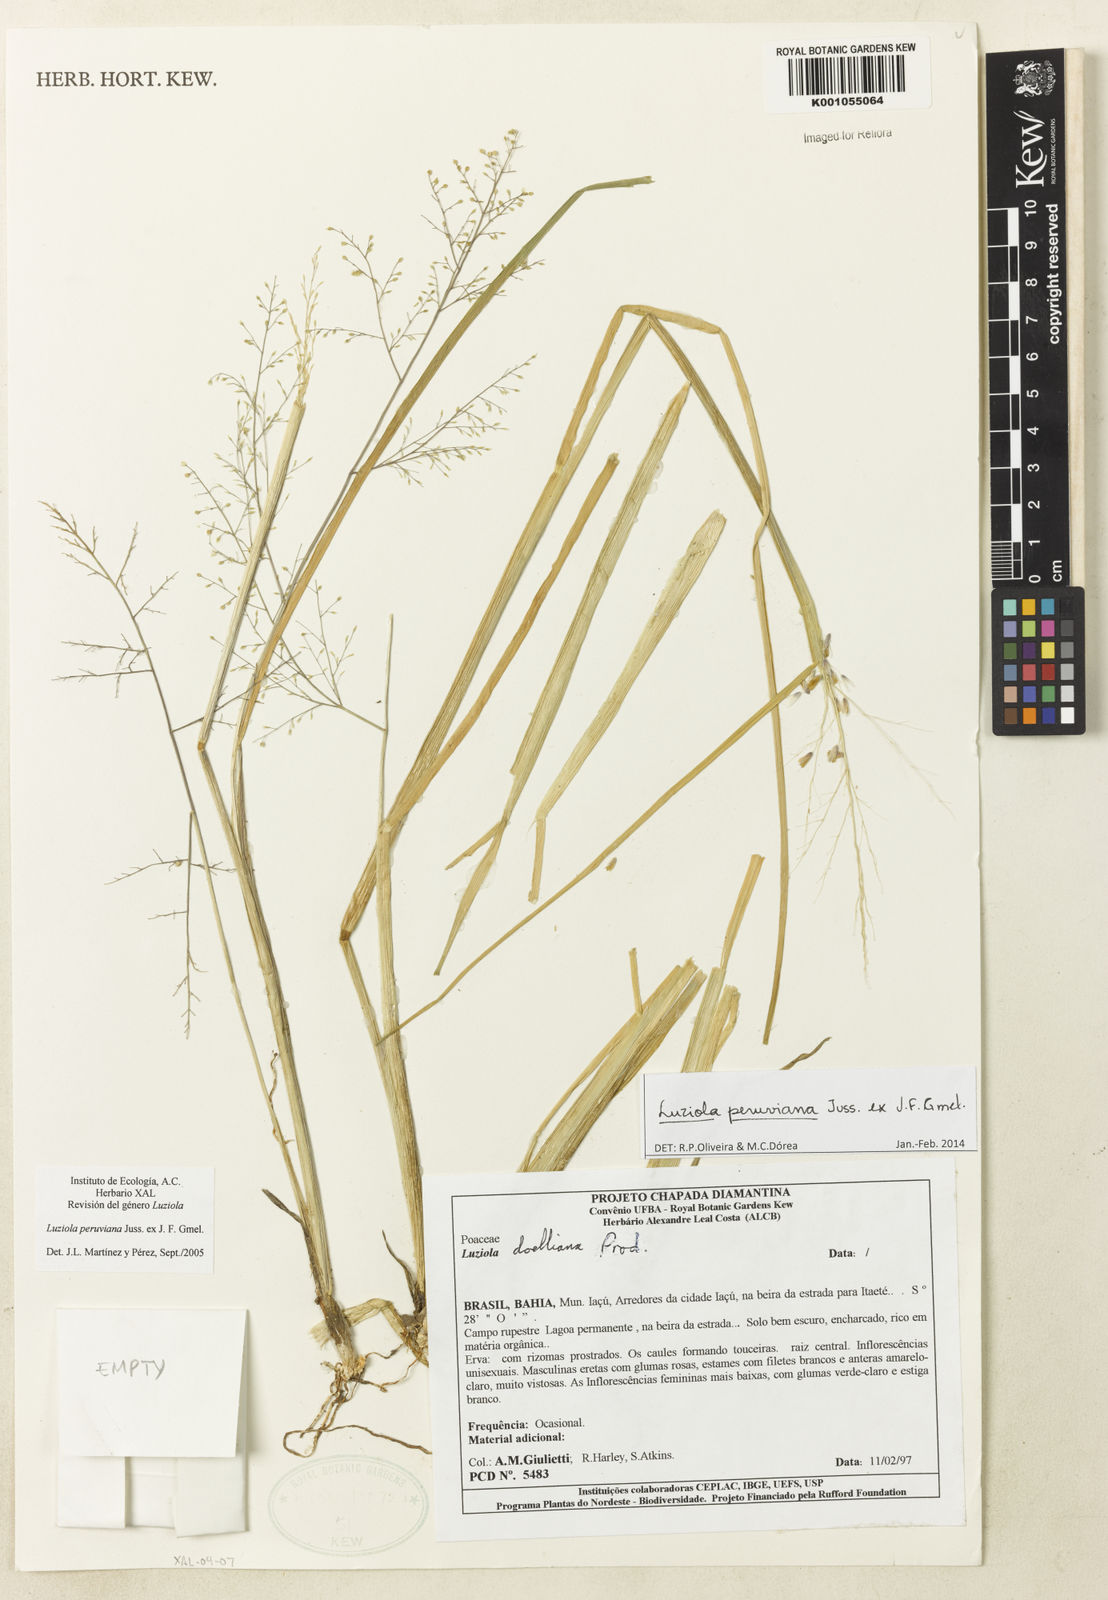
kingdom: Plantae
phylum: Tracheophyta
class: Liliopsida
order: Poales
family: Poaceae
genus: Luziola
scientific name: Luziola peruviana
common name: Peruvian watergrass
